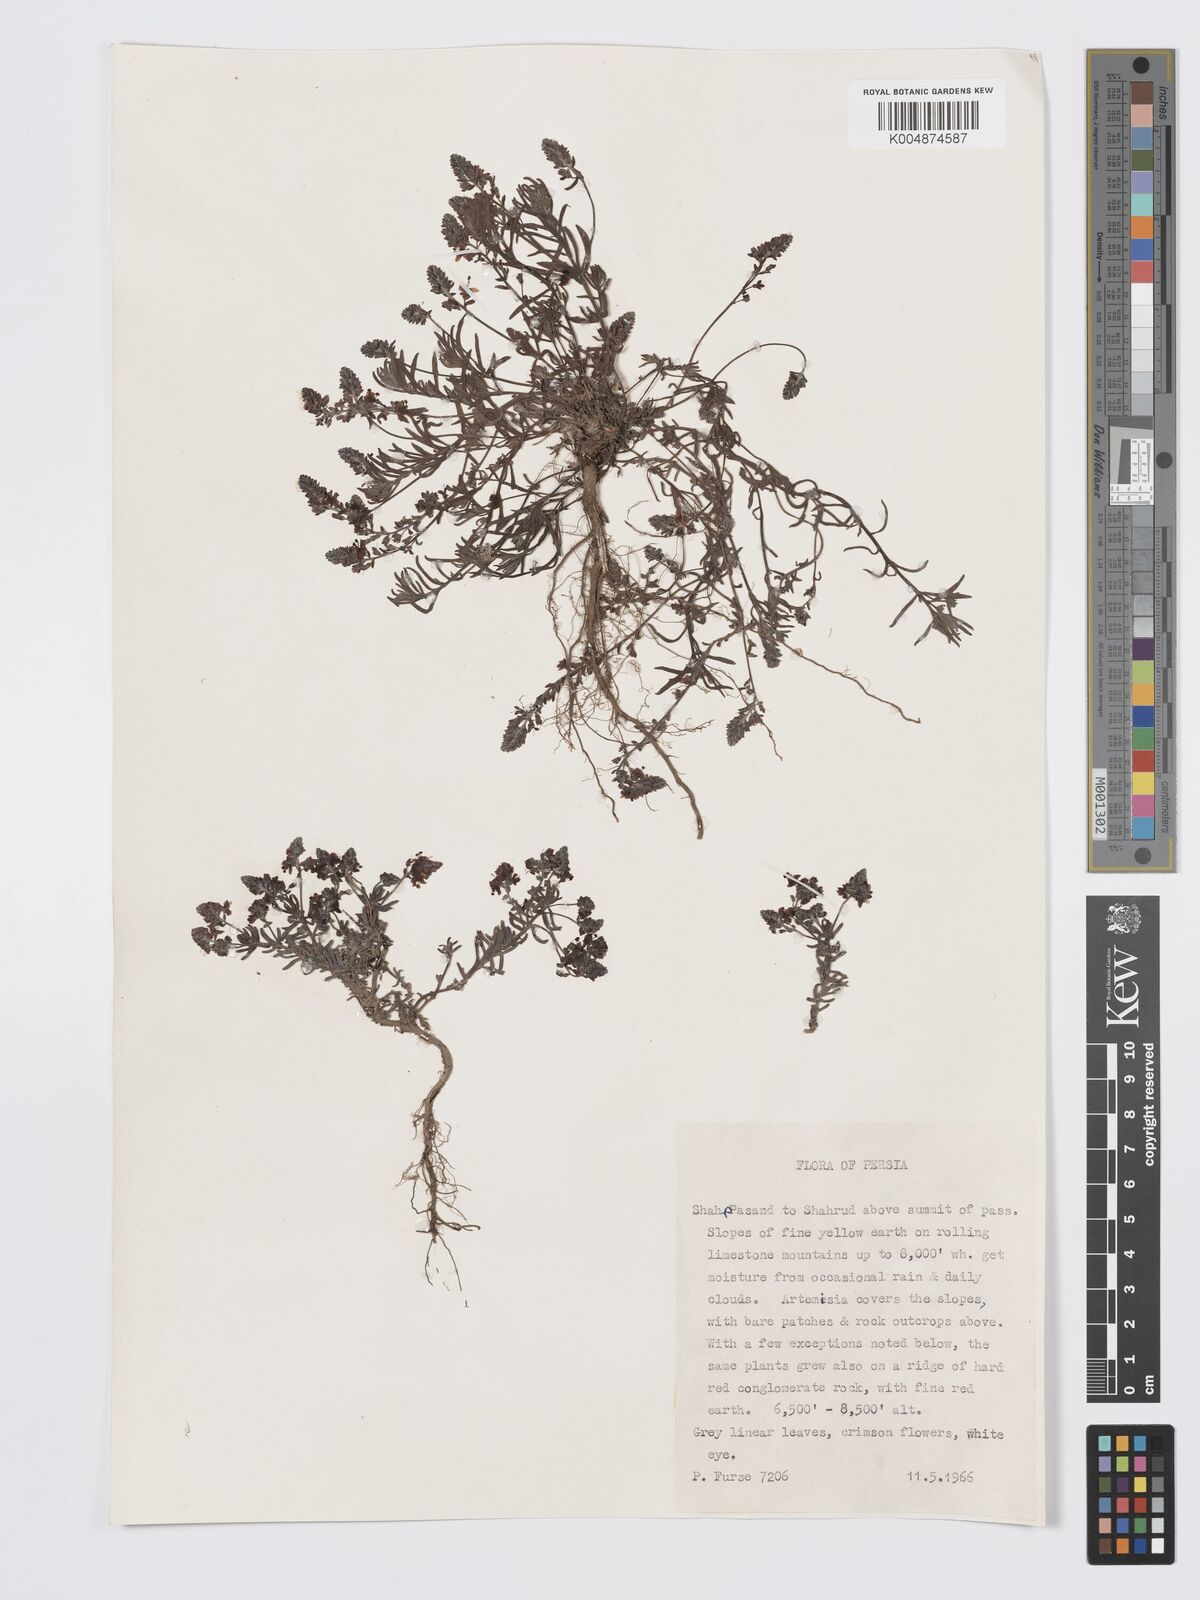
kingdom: Plantae
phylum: Tracheophyta
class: Magnoliopsida
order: Lamiales
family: Plantaginaceae
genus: Veronica
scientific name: Veronica
